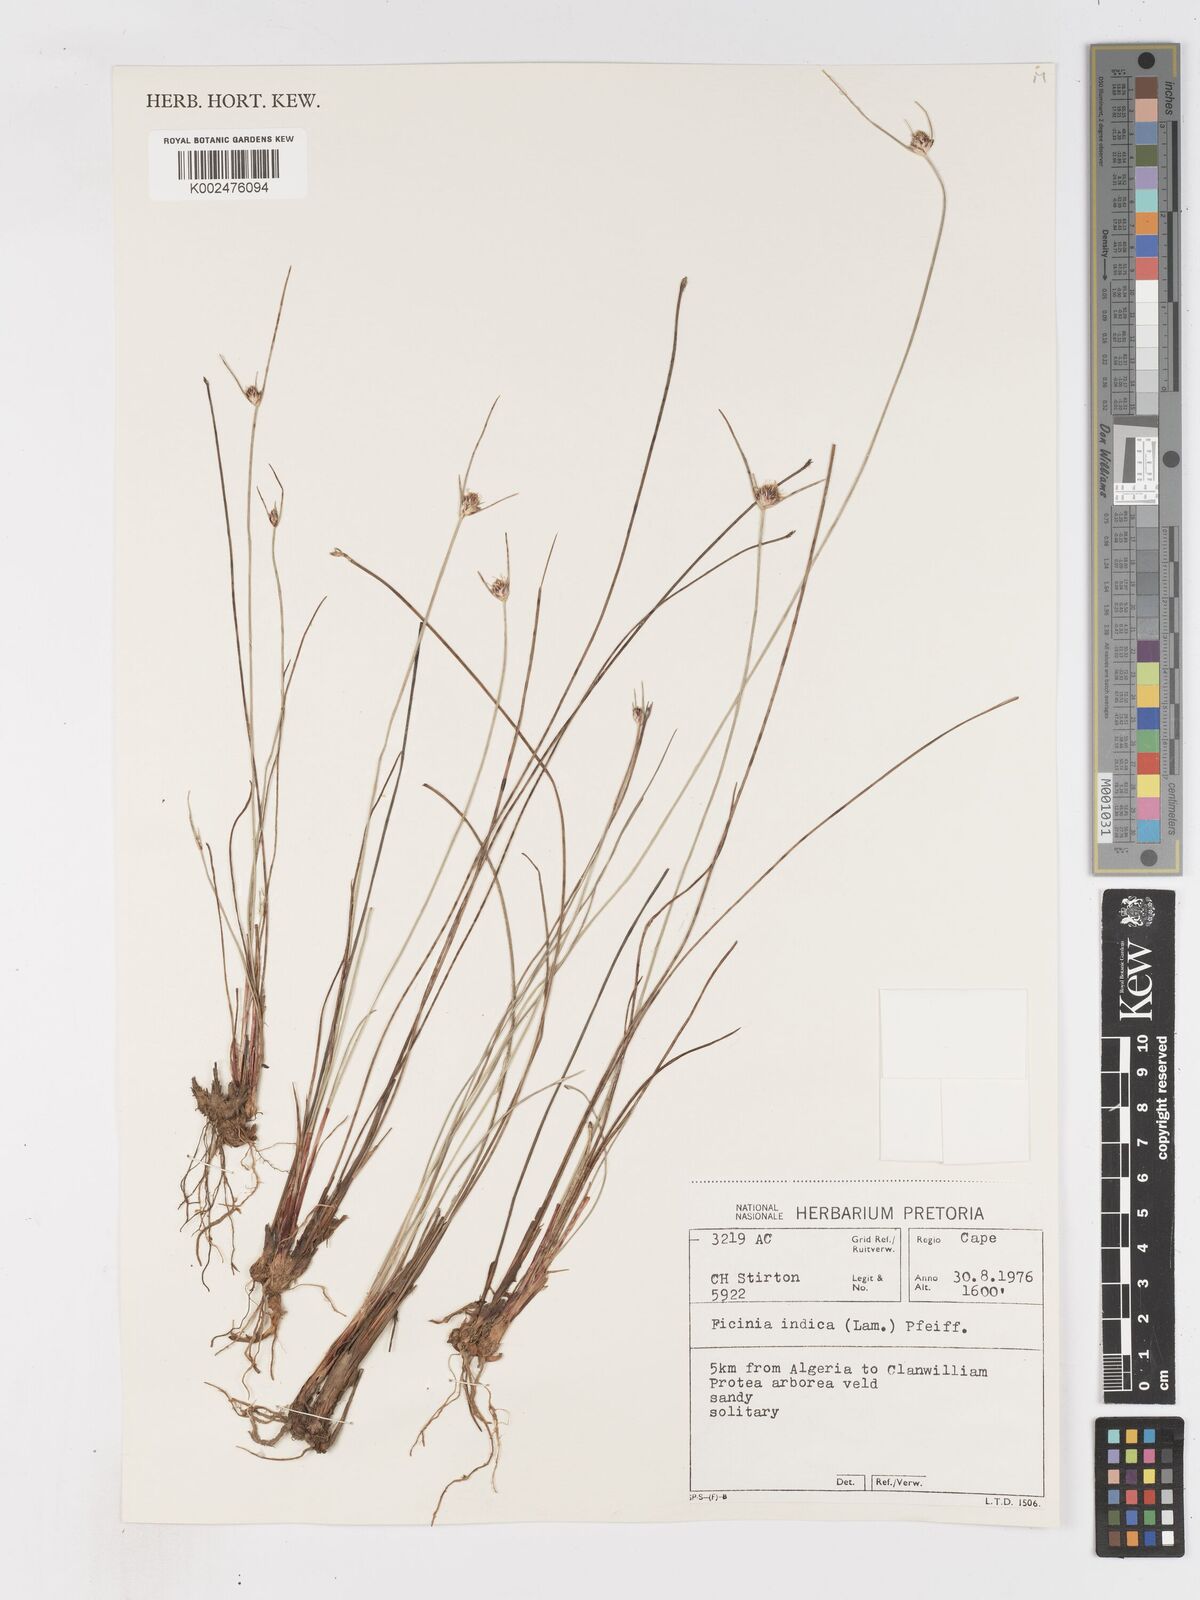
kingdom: Plantae
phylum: Tracheophyta
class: Liliopsida
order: Poales
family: Cyperaceae
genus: Ficinia
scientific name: Ficinia indica
